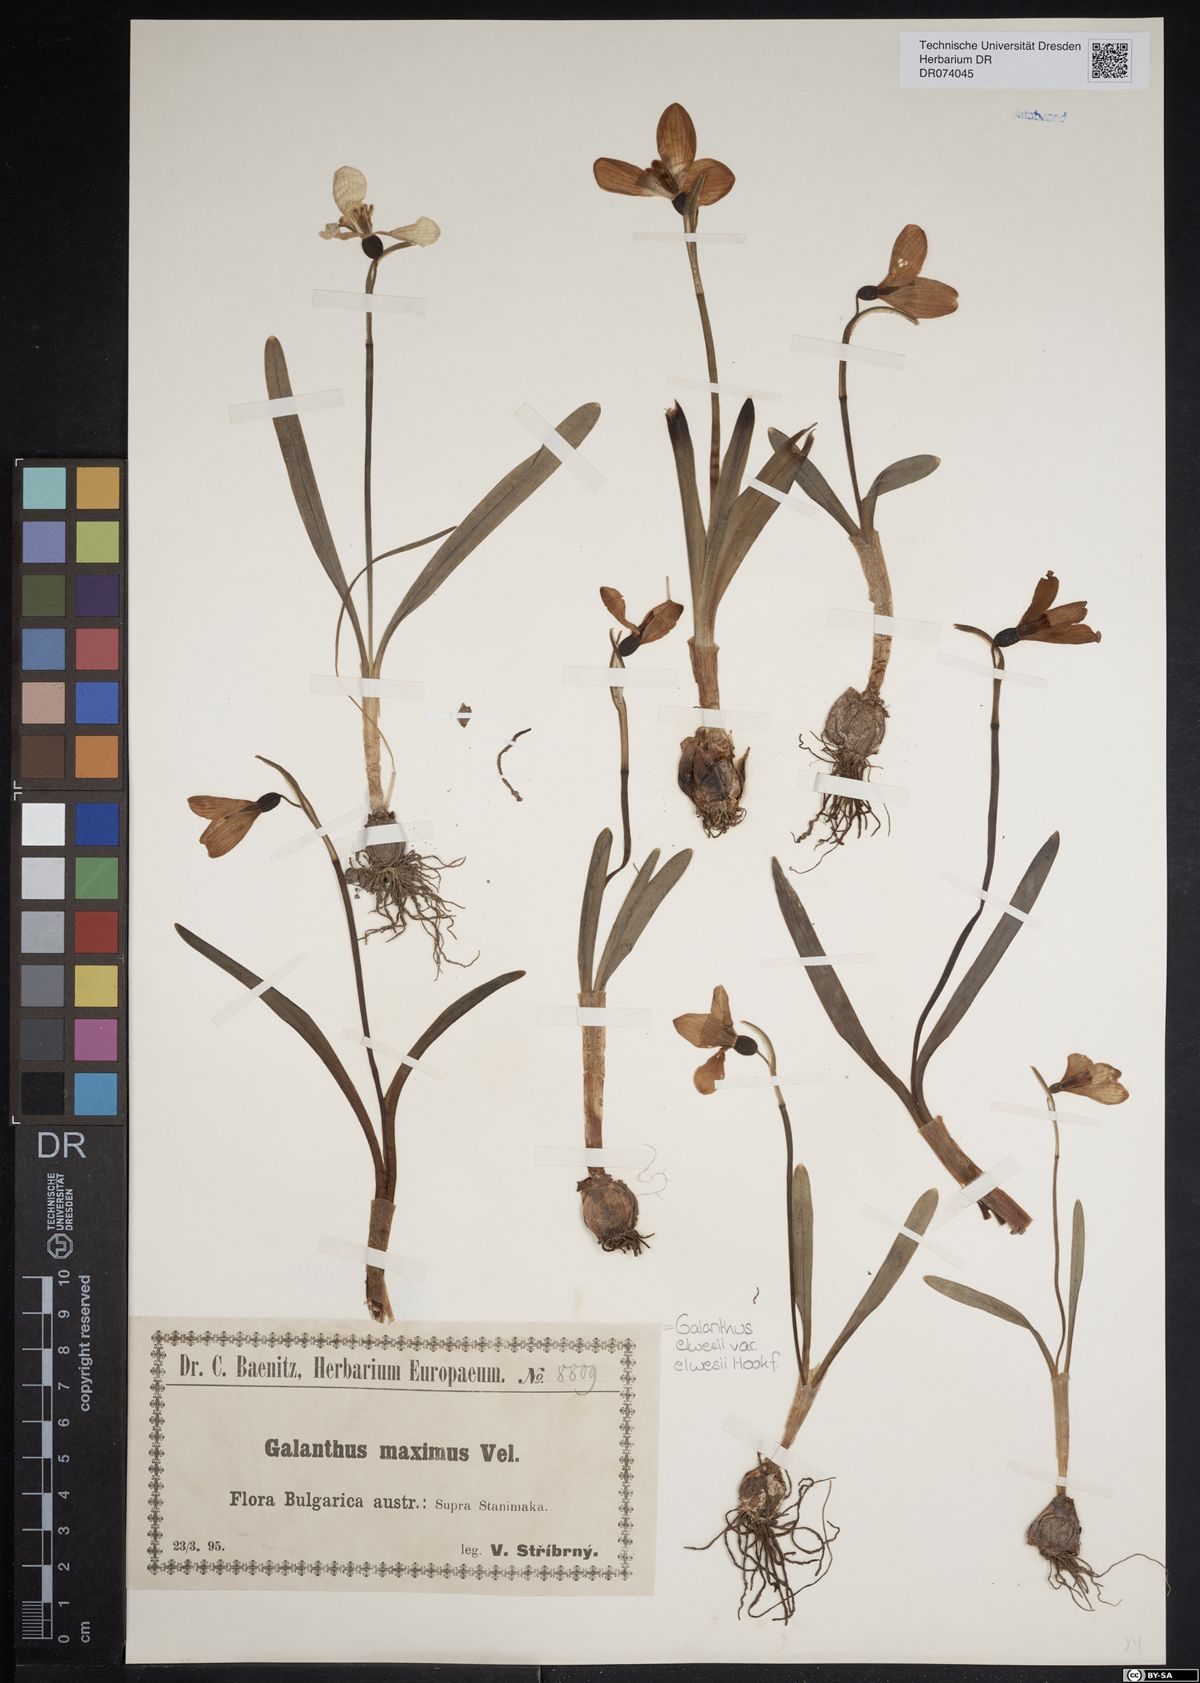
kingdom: Plantae
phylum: Tracheophyta
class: Liliopsida
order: Asparagales
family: Amaryllidaceae
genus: Galanthus
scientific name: Galanthus elwesii
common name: Greater snowdrop
